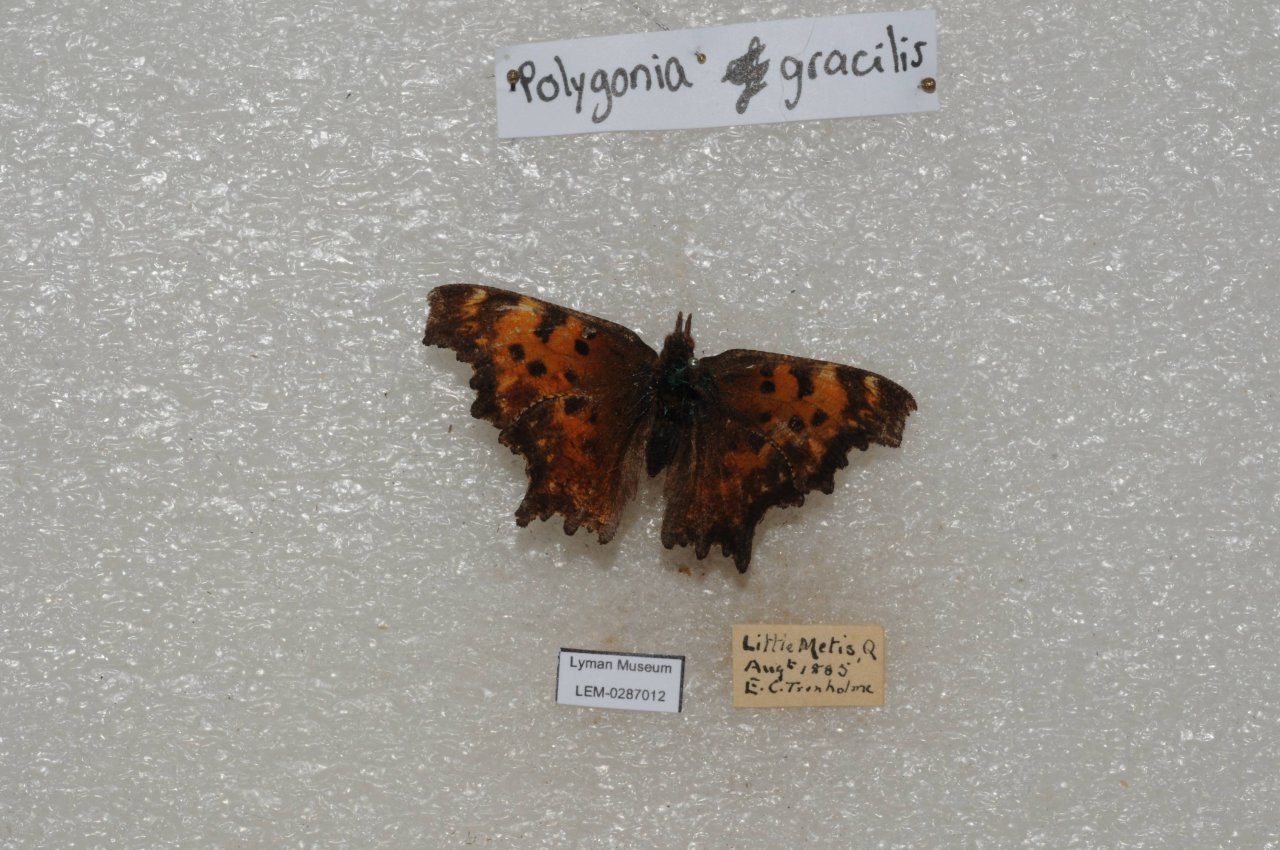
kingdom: Animalia
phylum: Arthropoda
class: Insecta
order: Lepidoptera
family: Nymphalidae
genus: Polygonia
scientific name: Polygonia gracilis
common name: Hoary Comma
